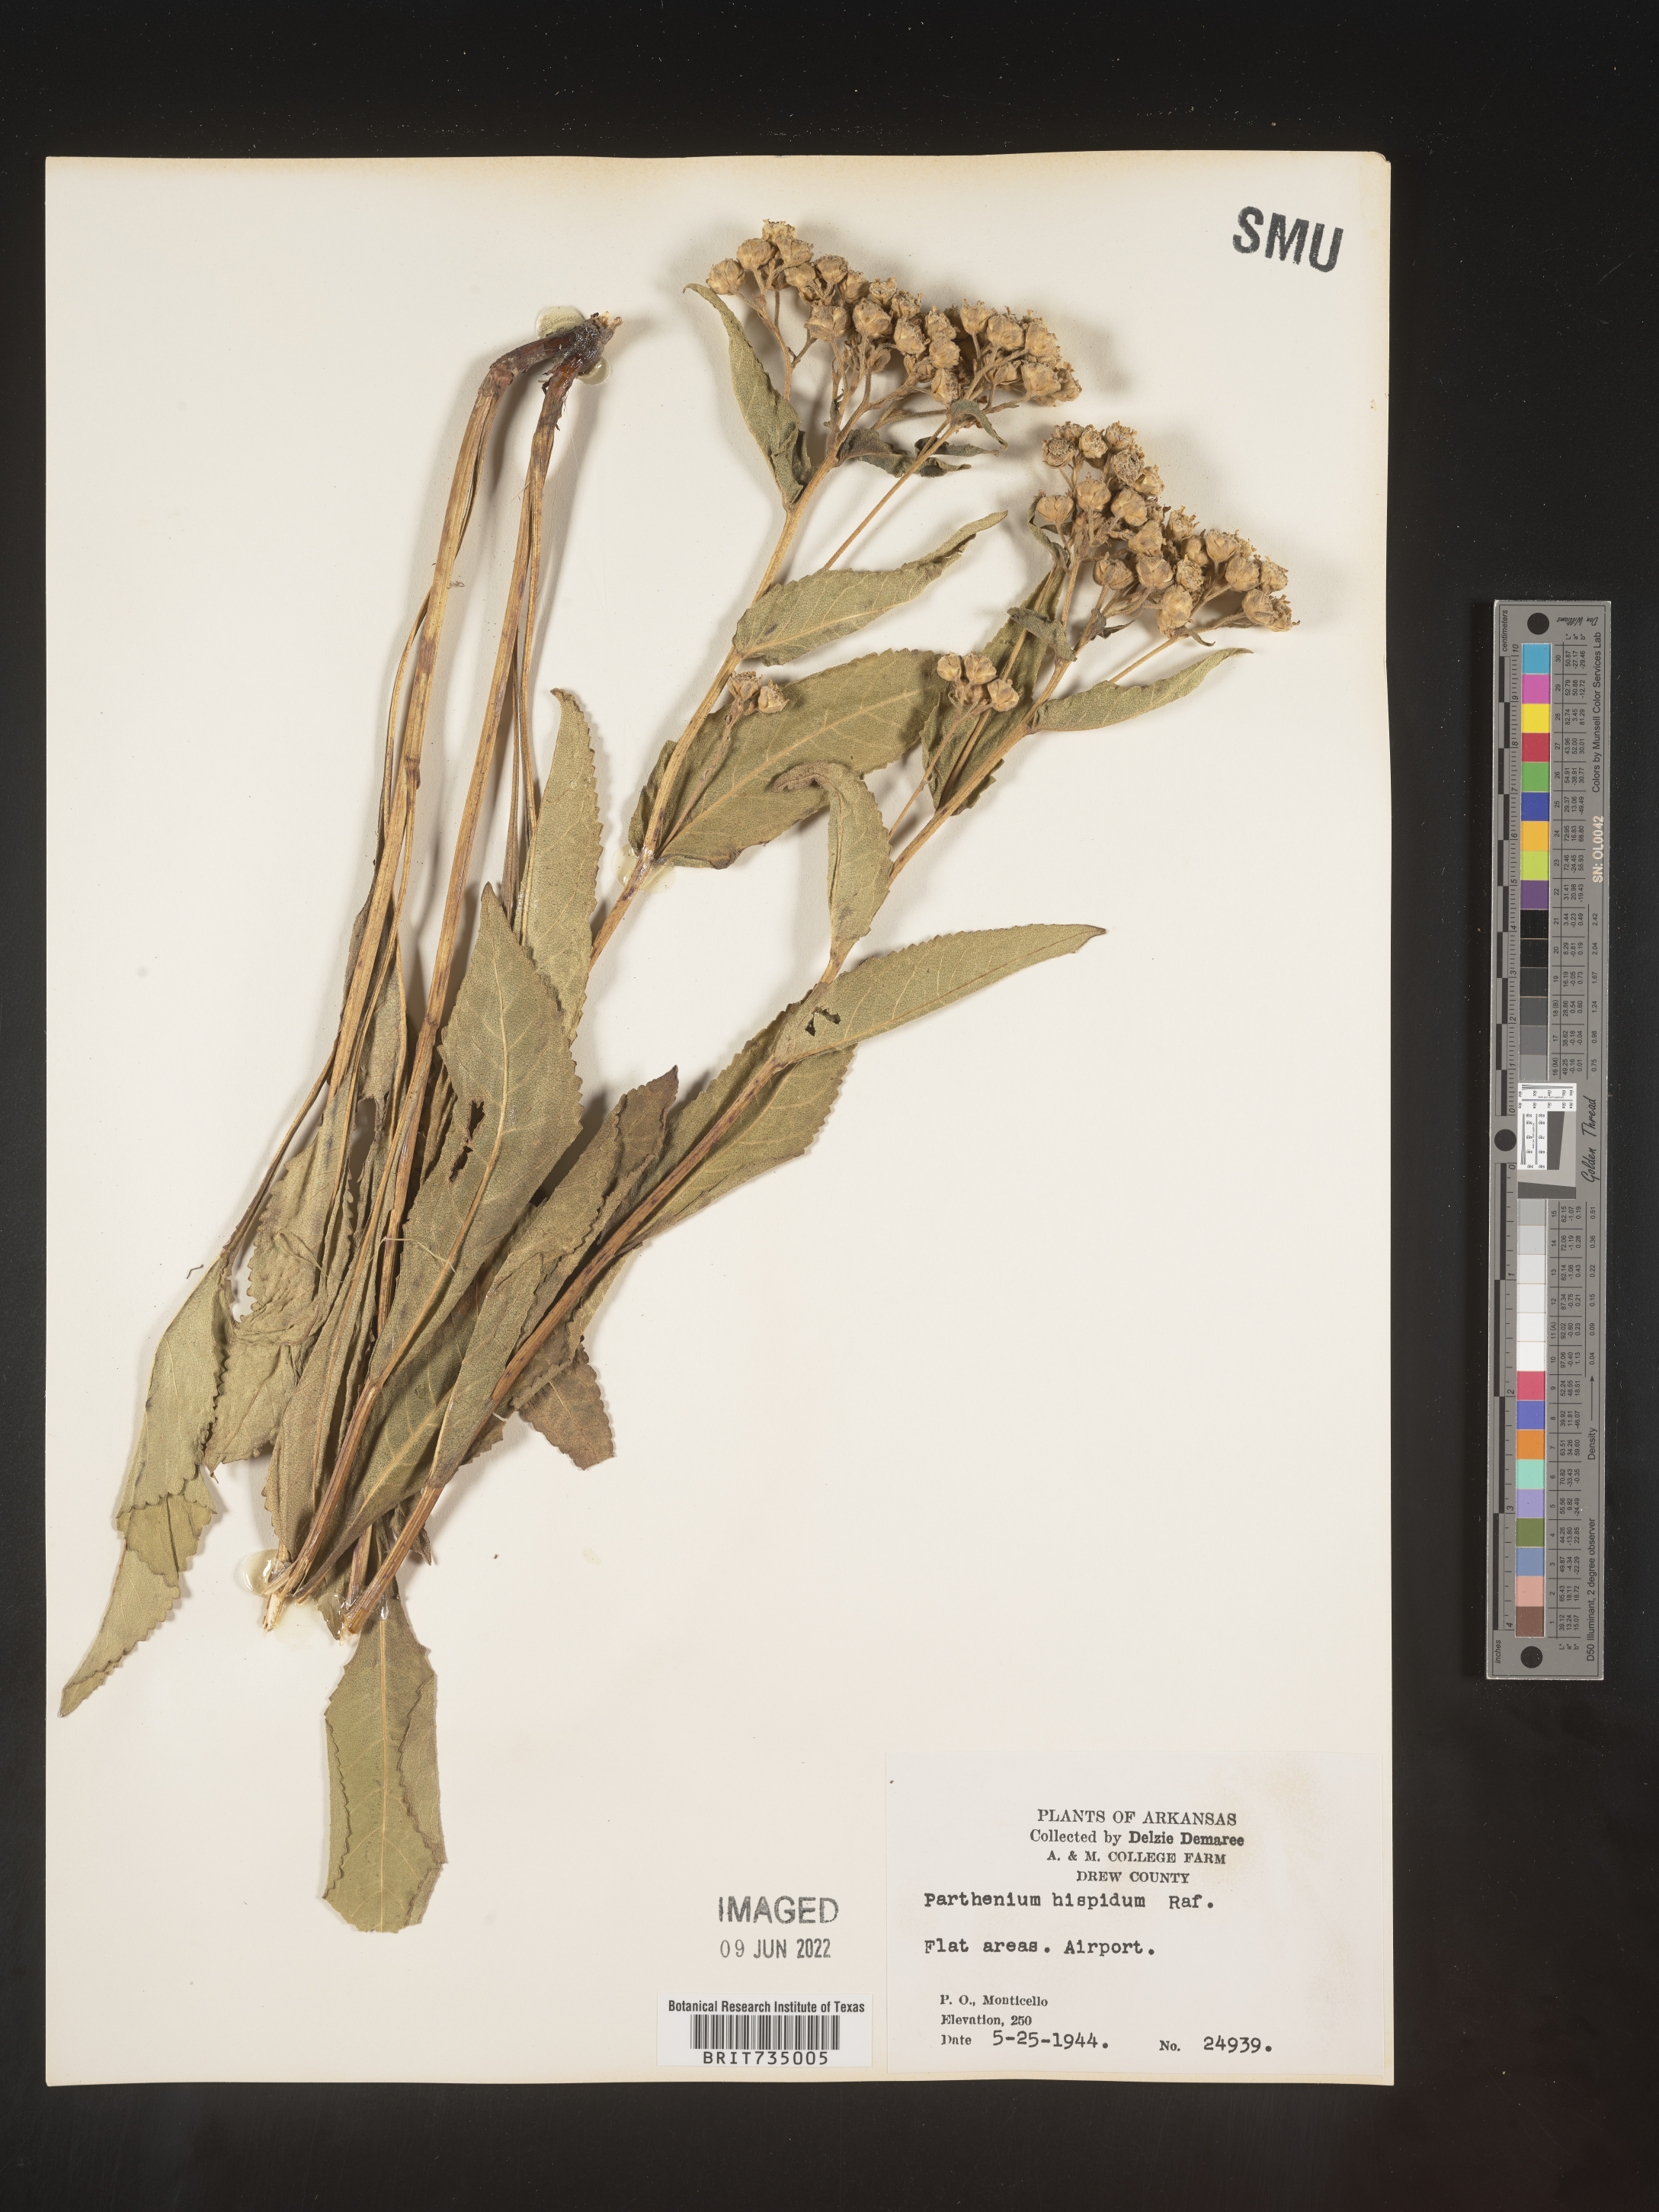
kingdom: Plantae
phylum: Tracheophyta
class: Magnoliopsida
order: Asterales
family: Asteraceae
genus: Parthenium
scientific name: Parthenium hispidum
